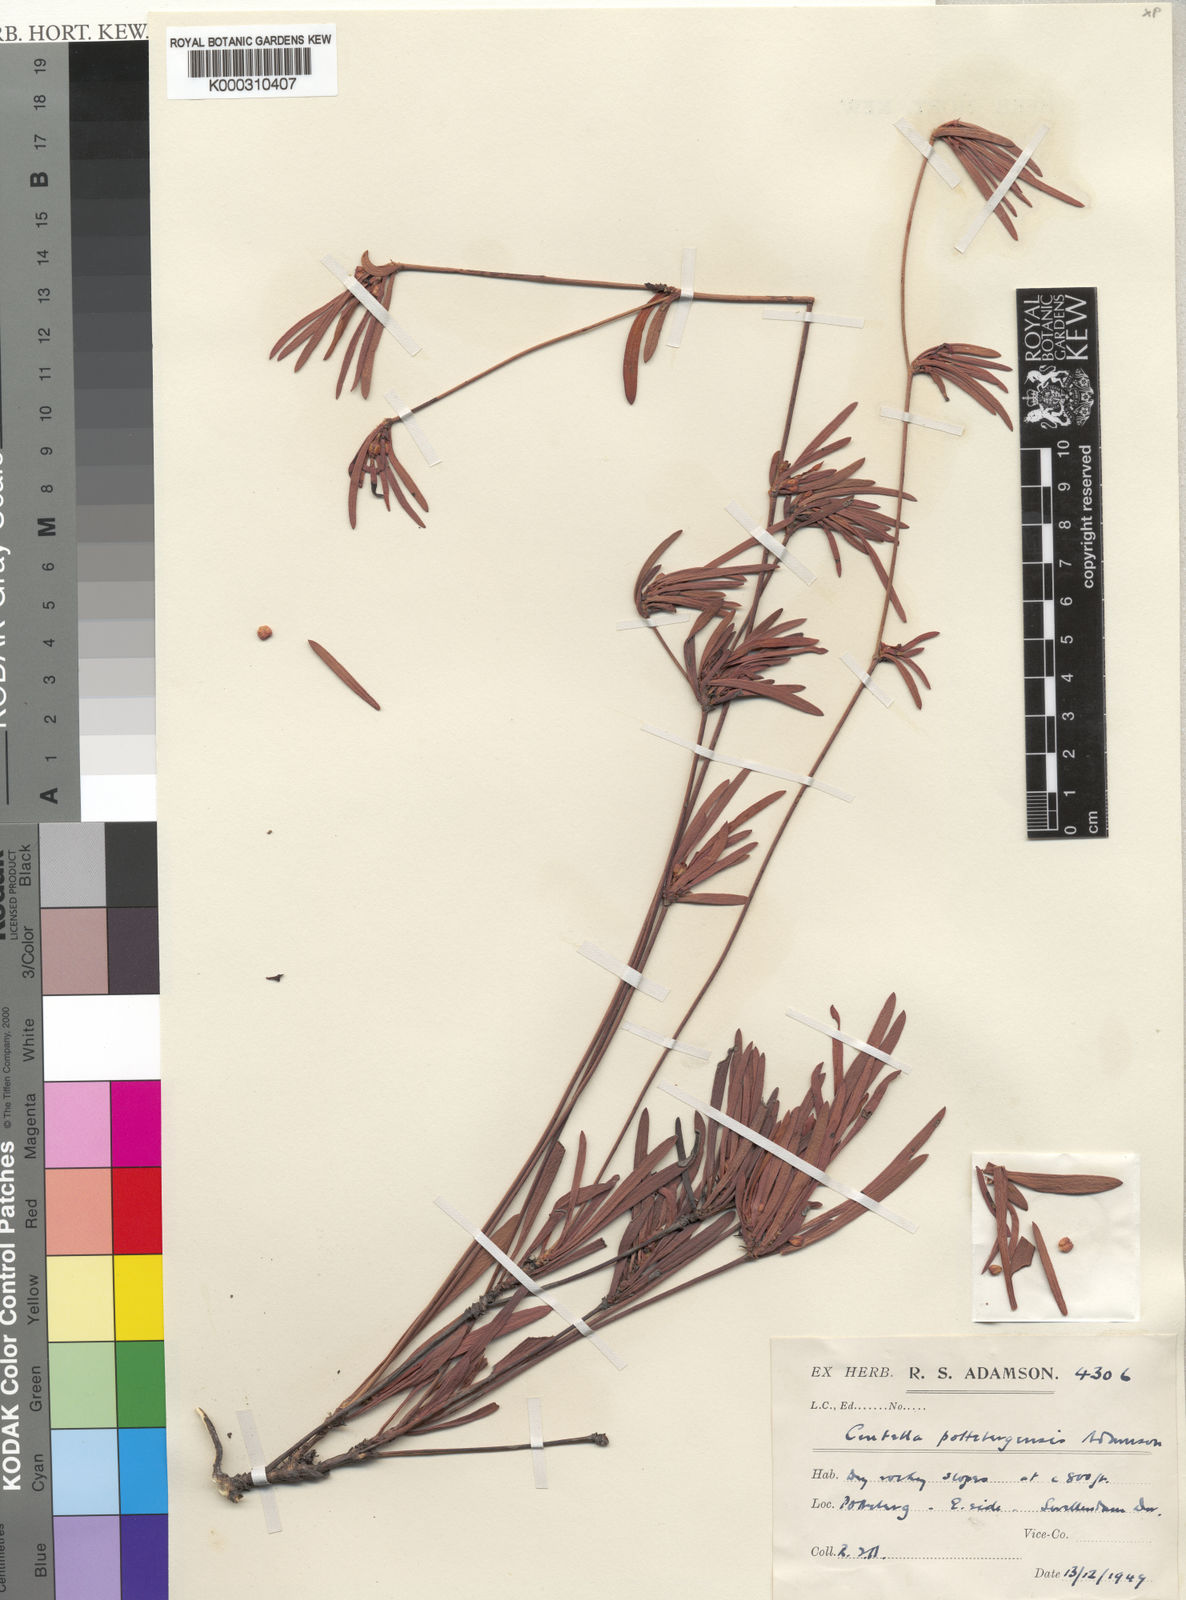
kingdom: Plantae
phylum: Tracheophyta
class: Magnoliopsida
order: Apiales
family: Apiaceae
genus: Centella
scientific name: Centella pottebergensis
